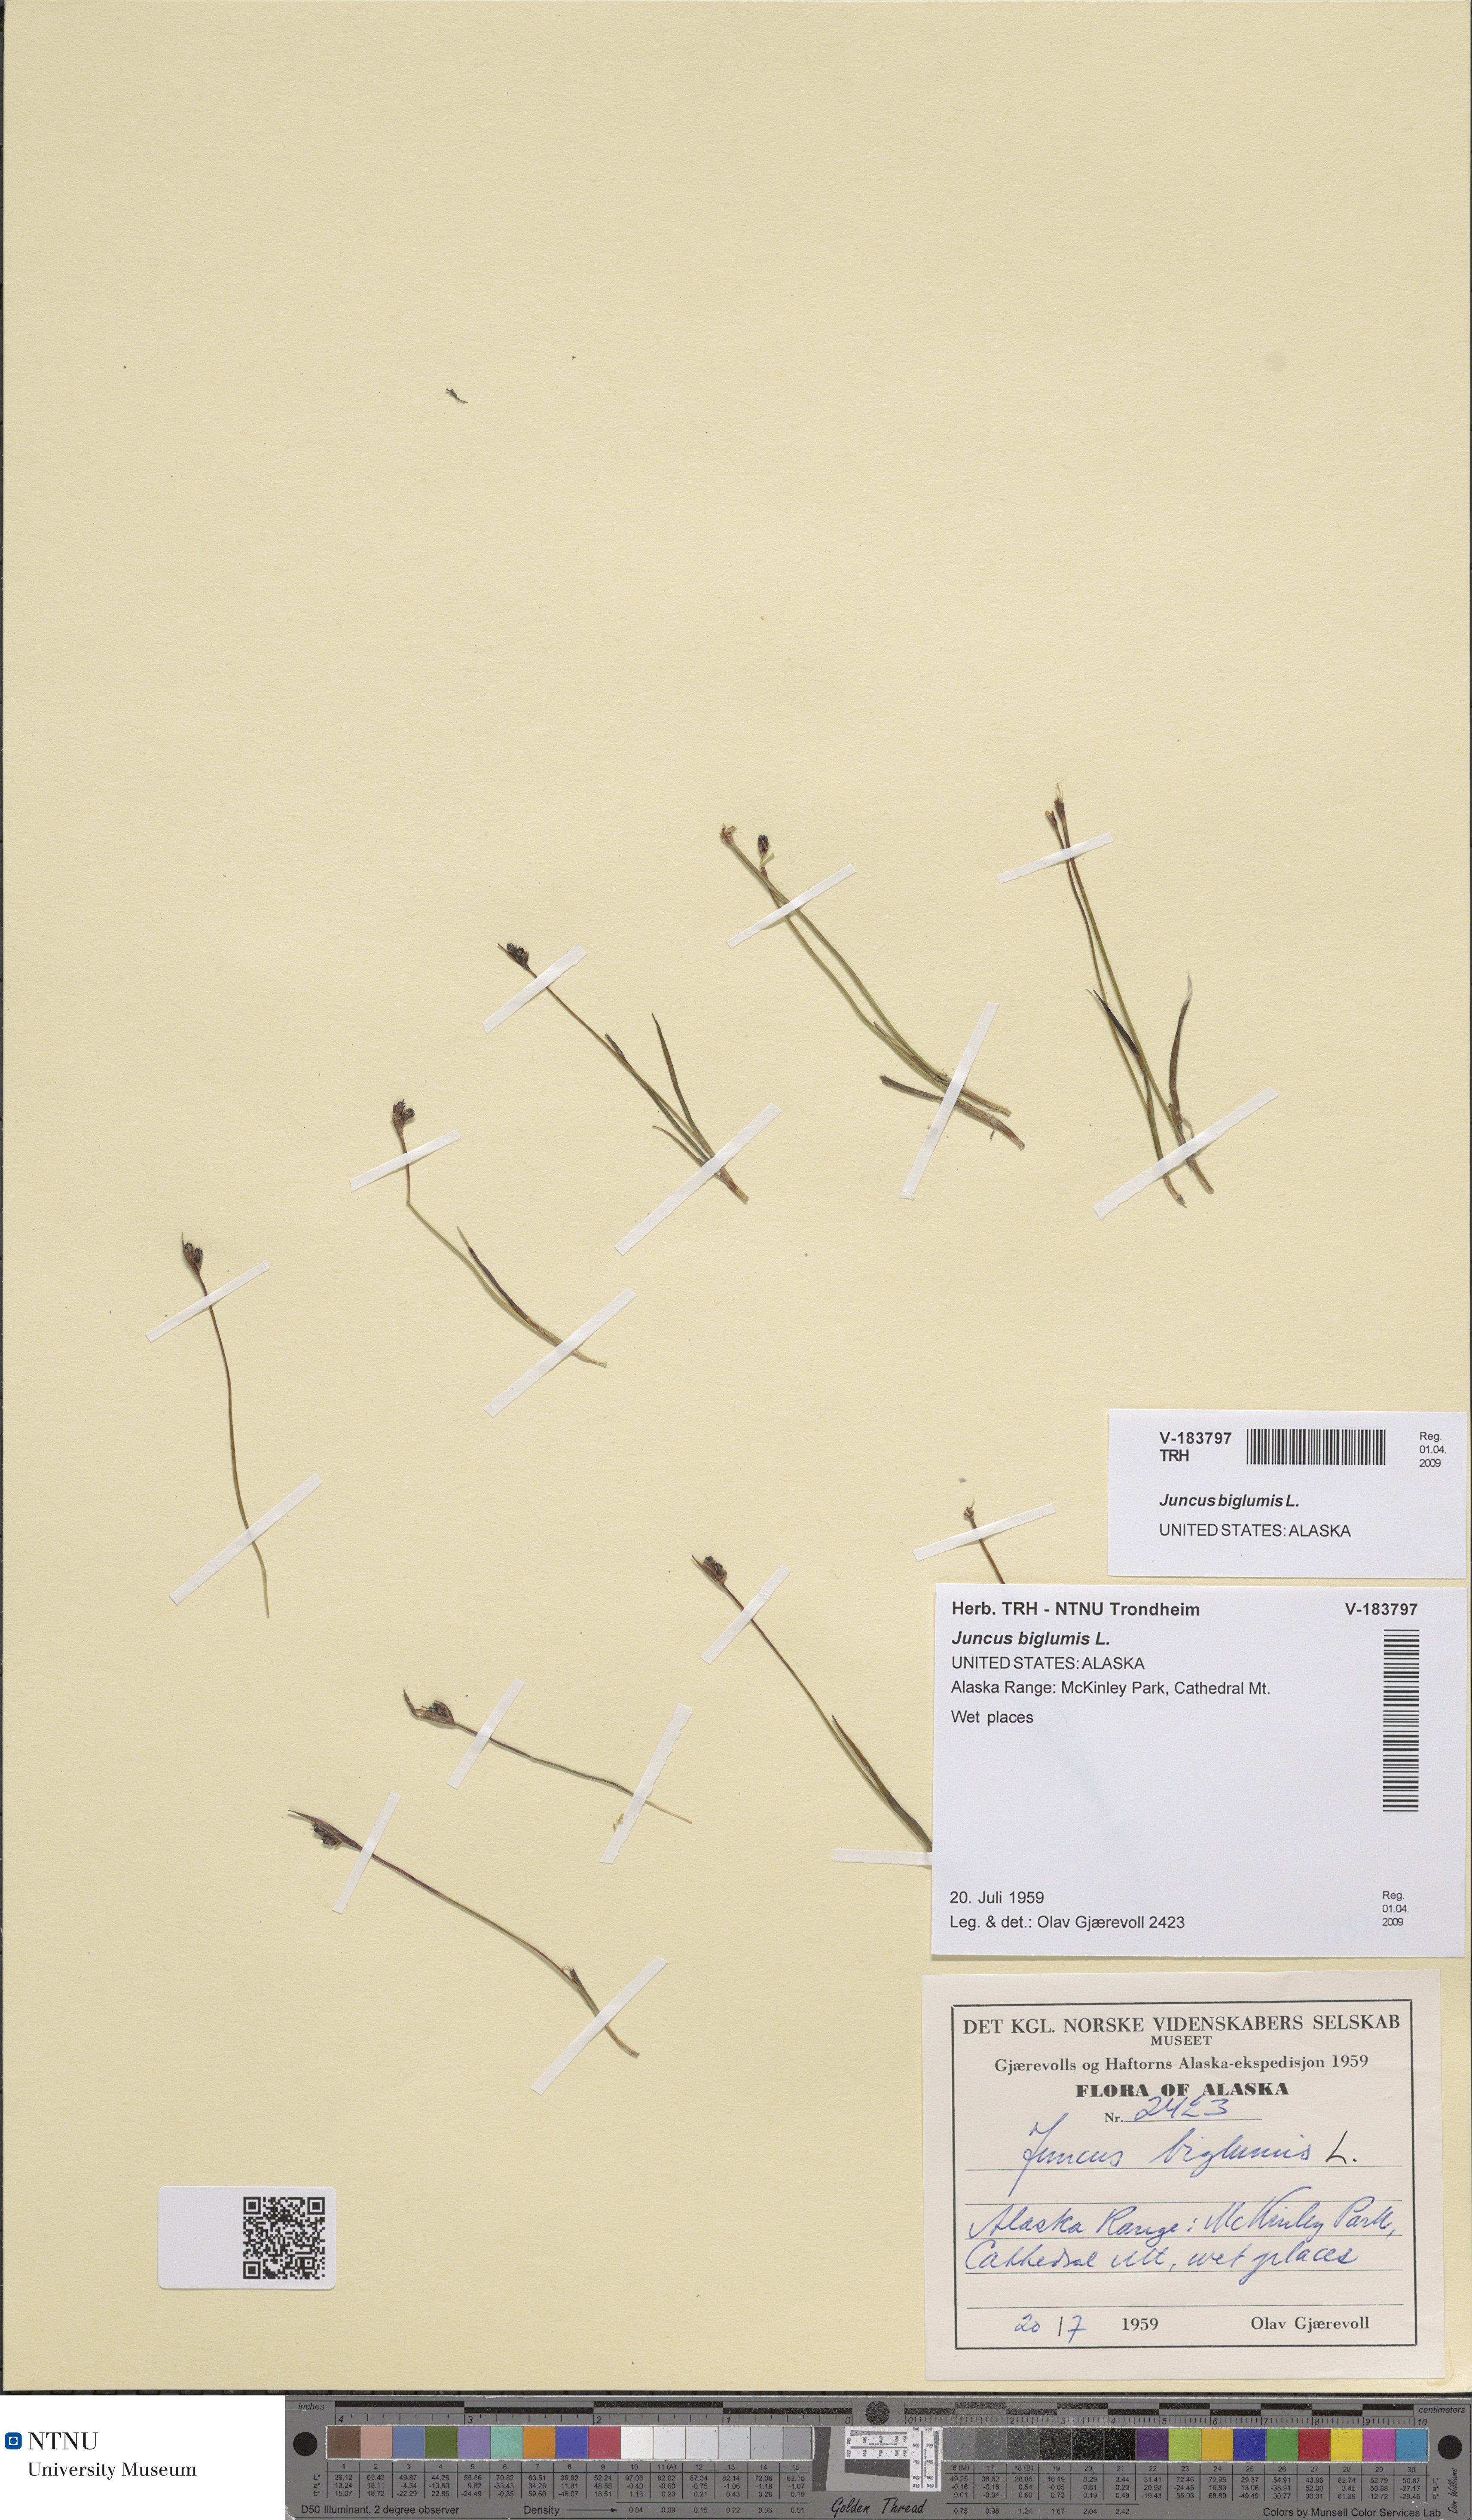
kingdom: Plantae
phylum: Tracheophyta
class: Liliopsida
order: Poales
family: Juncaceae
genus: Juncus
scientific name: Juncus biglumis
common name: Two-flowered rush
